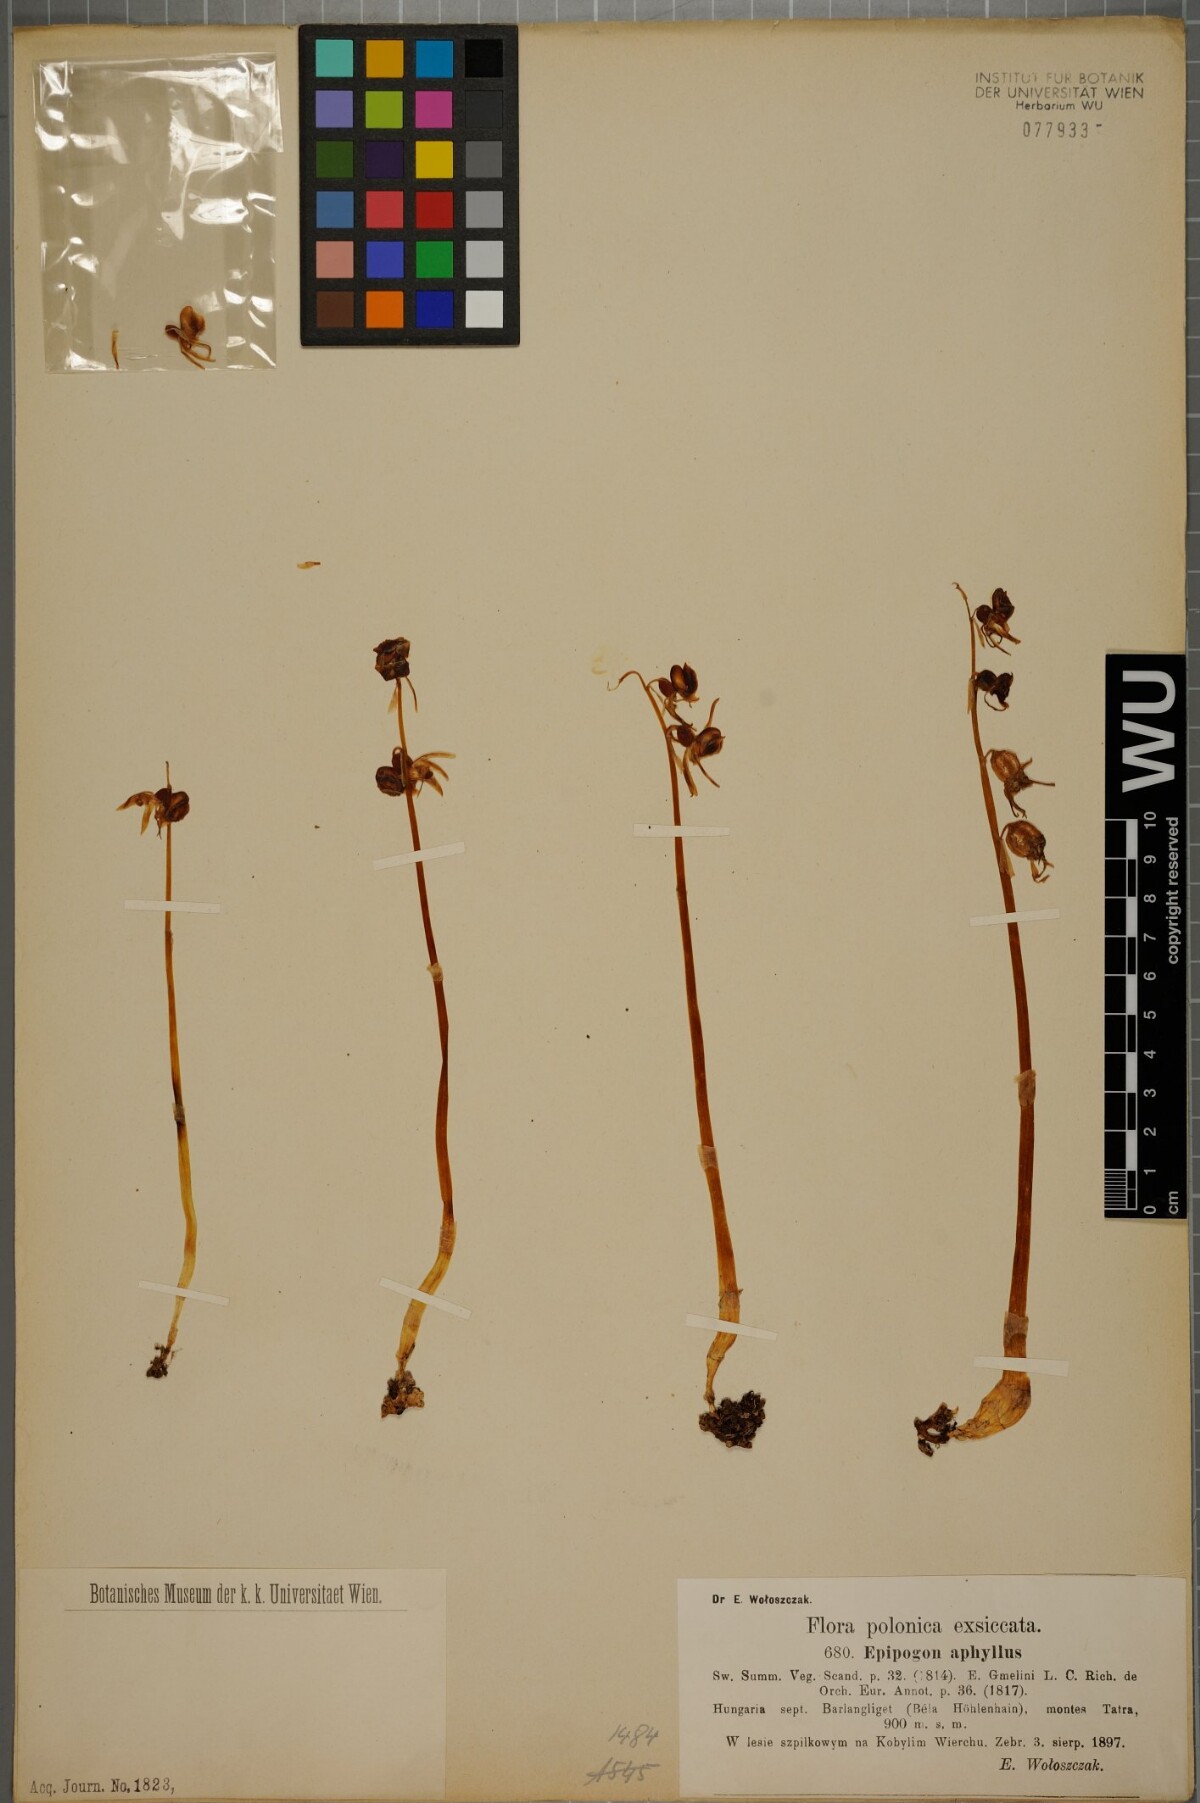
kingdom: Plantae
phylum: Tracheophyta
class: Liliopsida
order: Asparagales
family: Orchidaceae
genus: Epipogium
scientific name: Epipogium aphyllum
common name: Ghost orchid
